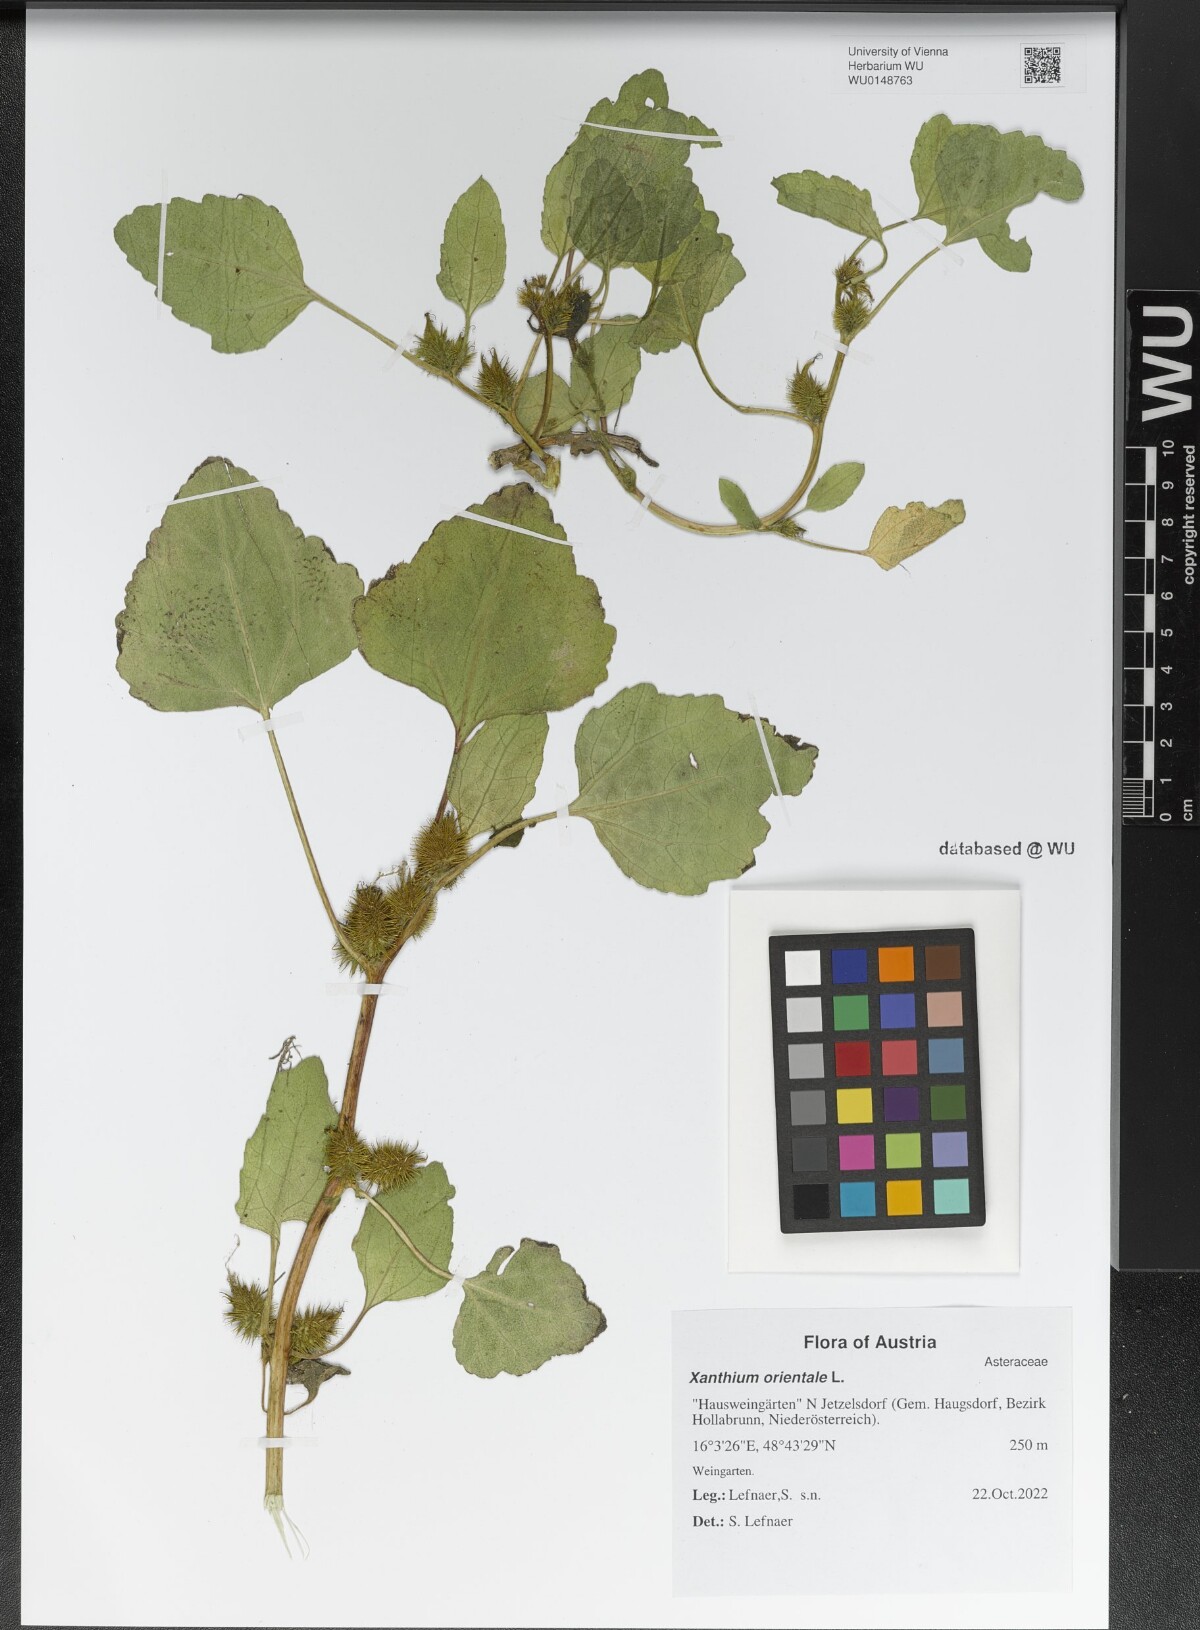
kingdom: Plantae
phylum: Tracheophyta
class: Magnoliopsida
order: Asterales
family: Asteraceae
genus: Xanthium
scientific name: Xanthium orientale
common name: Californian burr
